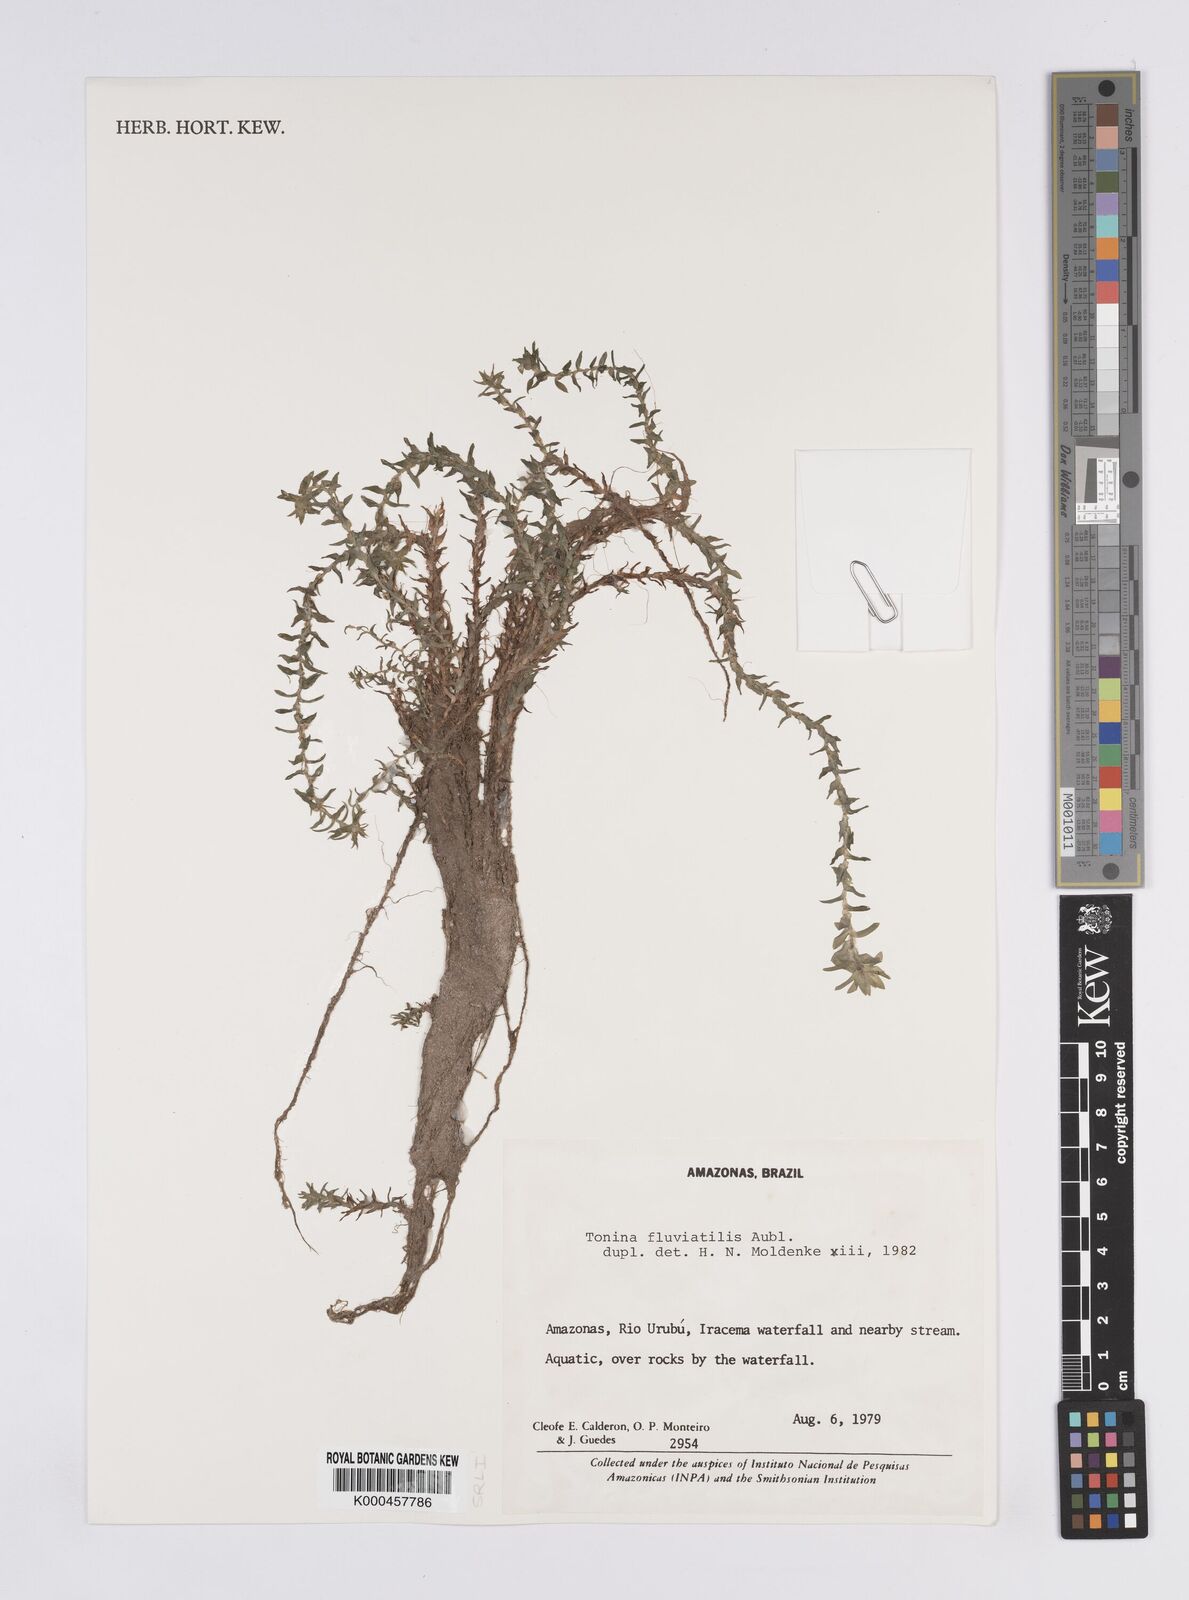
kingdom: Plantae
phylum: Tracheophyta
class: Liliopsida
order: Poales
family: Eriocaulaceae
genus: Paepalanthus
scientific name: Paepalanthus fluviatilis
